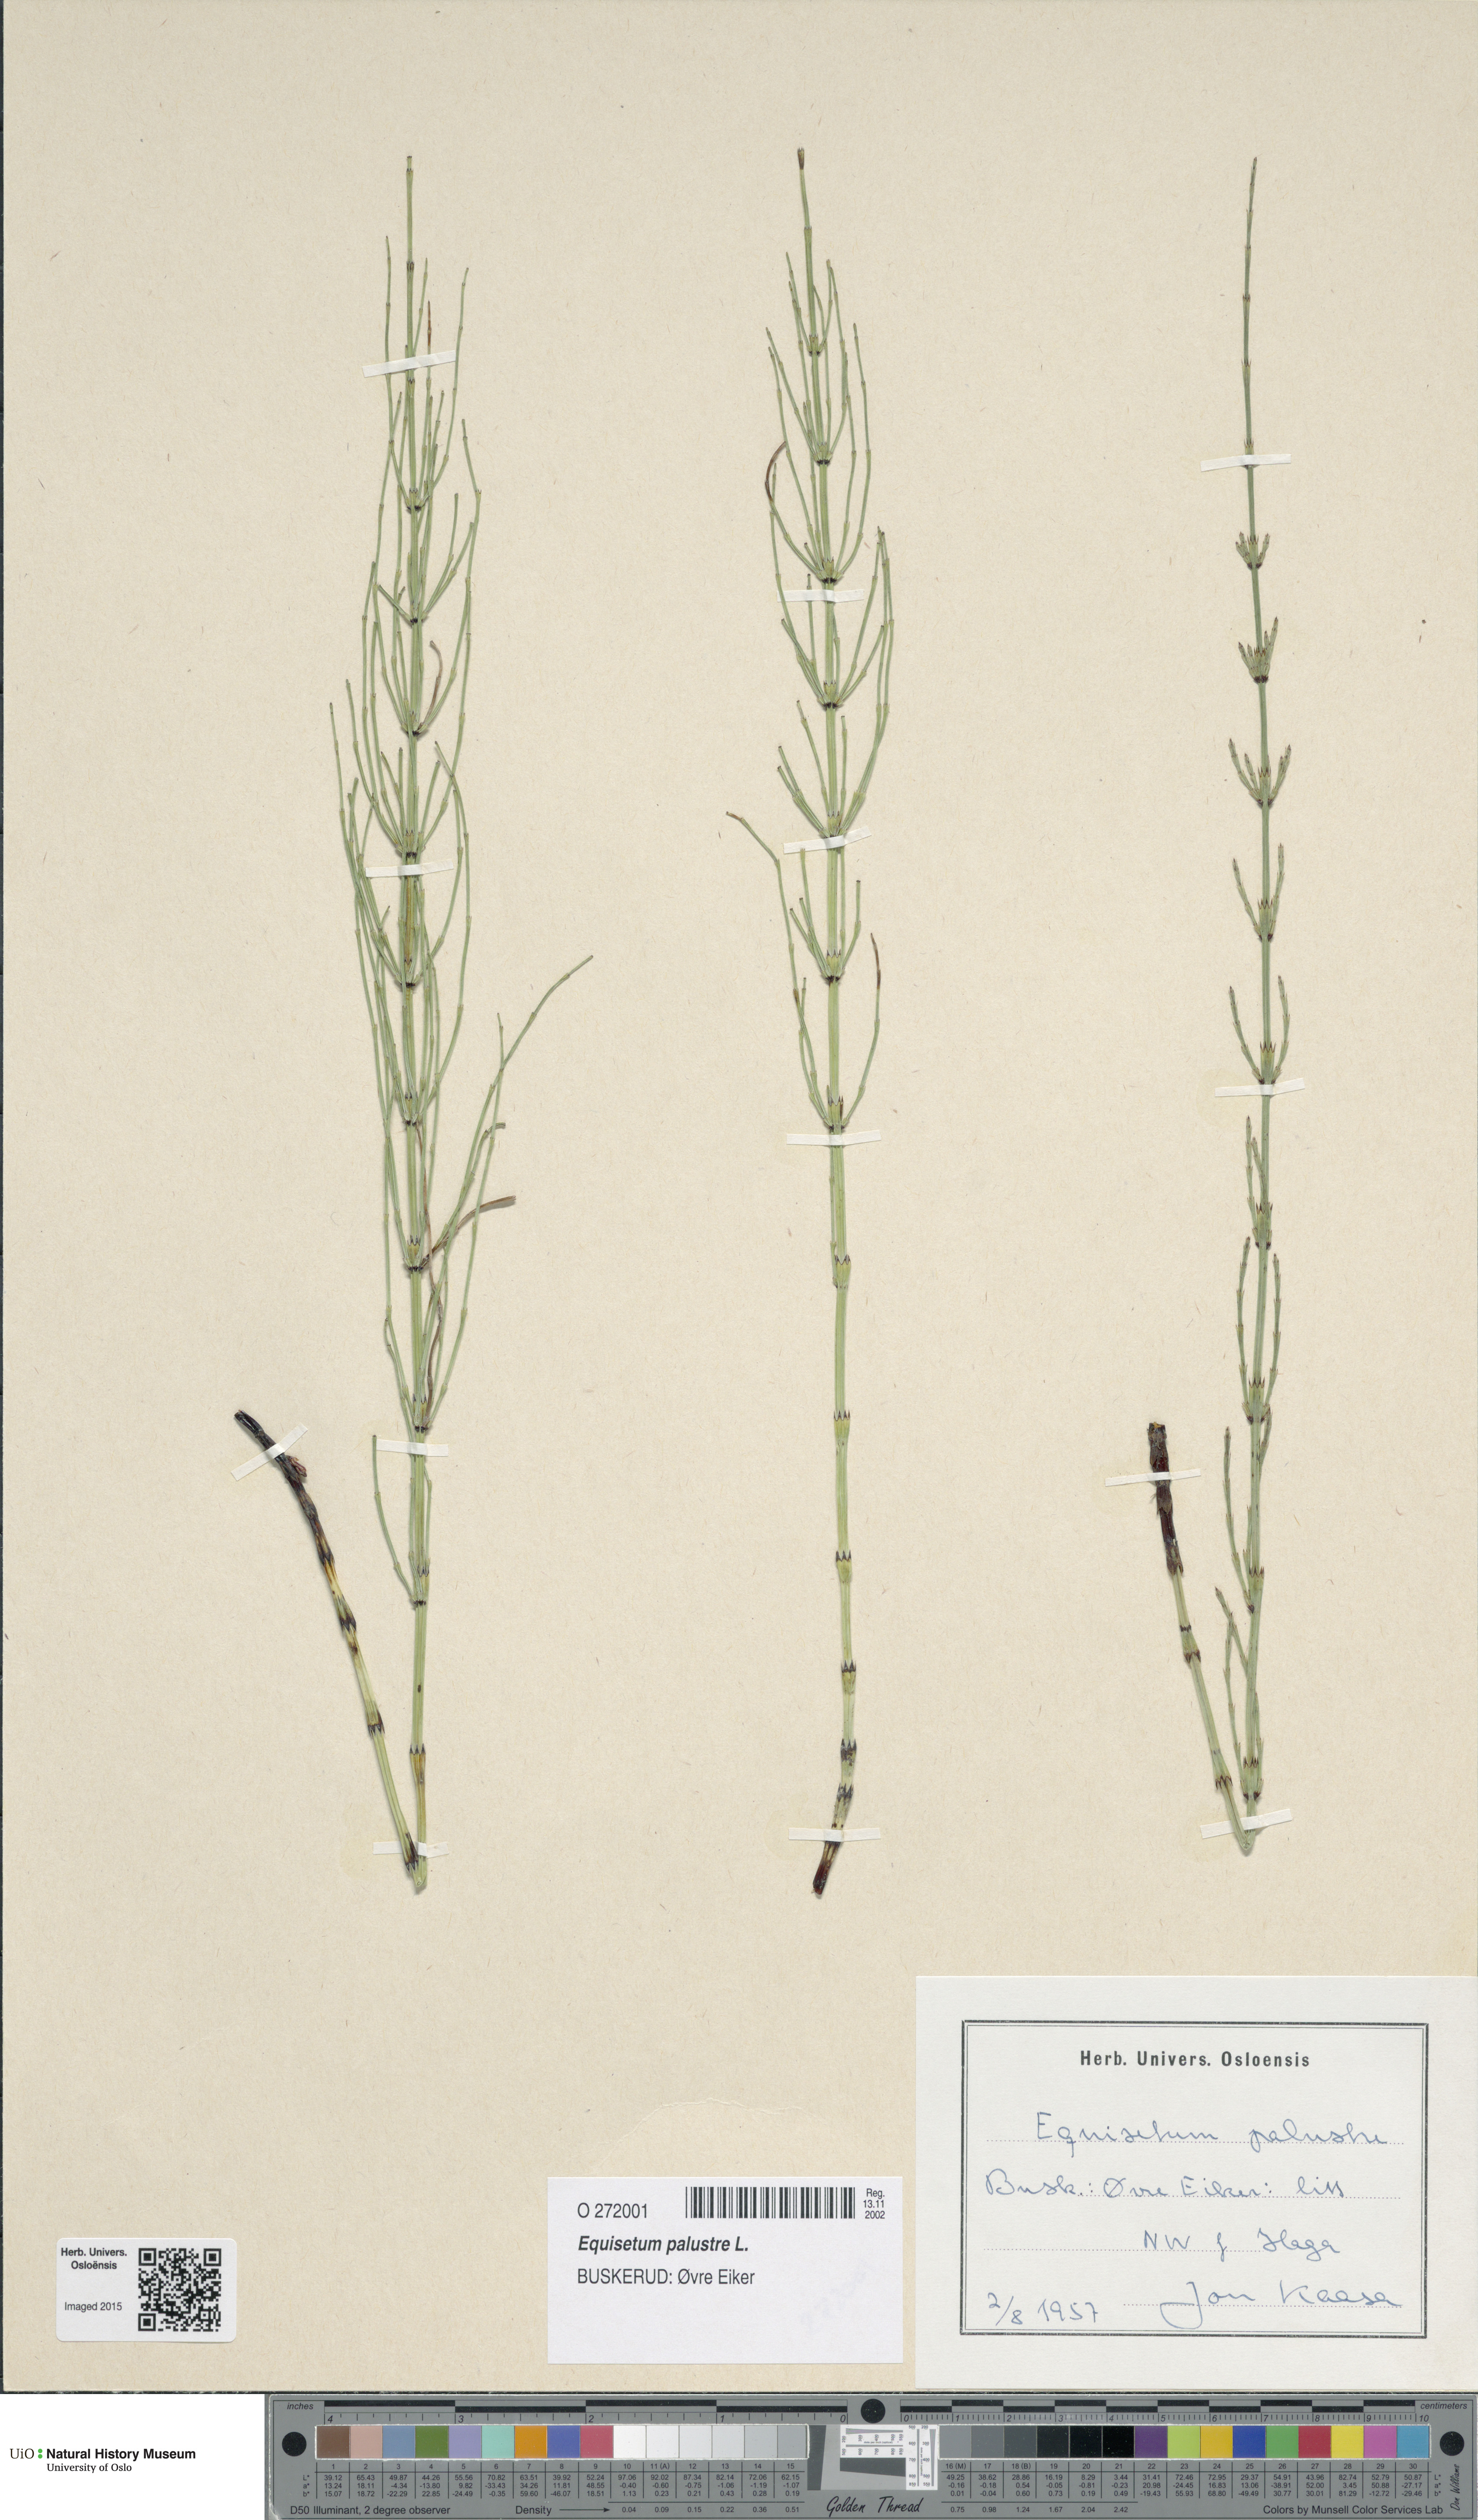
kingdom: Plantae
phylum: Tracheophyta
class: Polypodiopsida
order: Equisetales
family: Equisetaceae
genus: Equisetum
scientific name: Equisetum palustre
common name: Marsh horsetail
